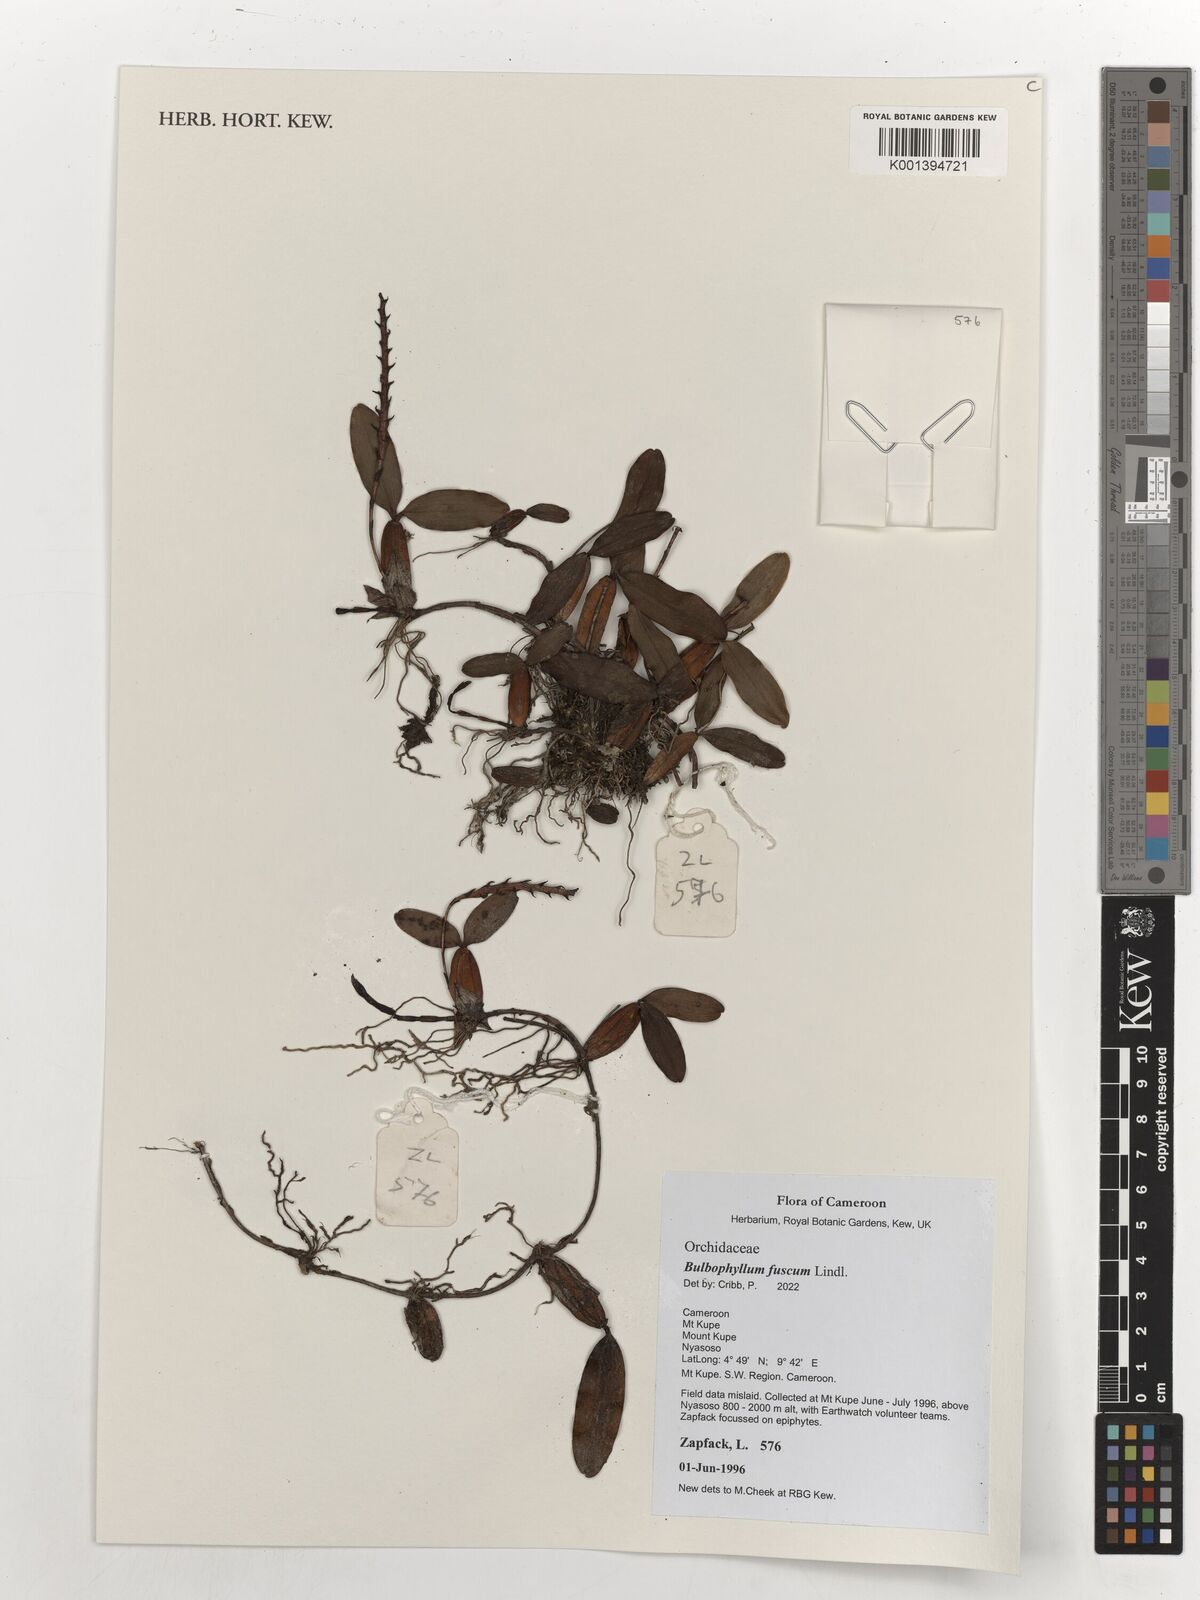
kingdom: Plantae
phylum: Tracheophyta
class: Liliopsida
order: Asparagales
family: Orchidaceae
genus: Bulbophyllum
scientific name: Bulbophyllum fuscum
